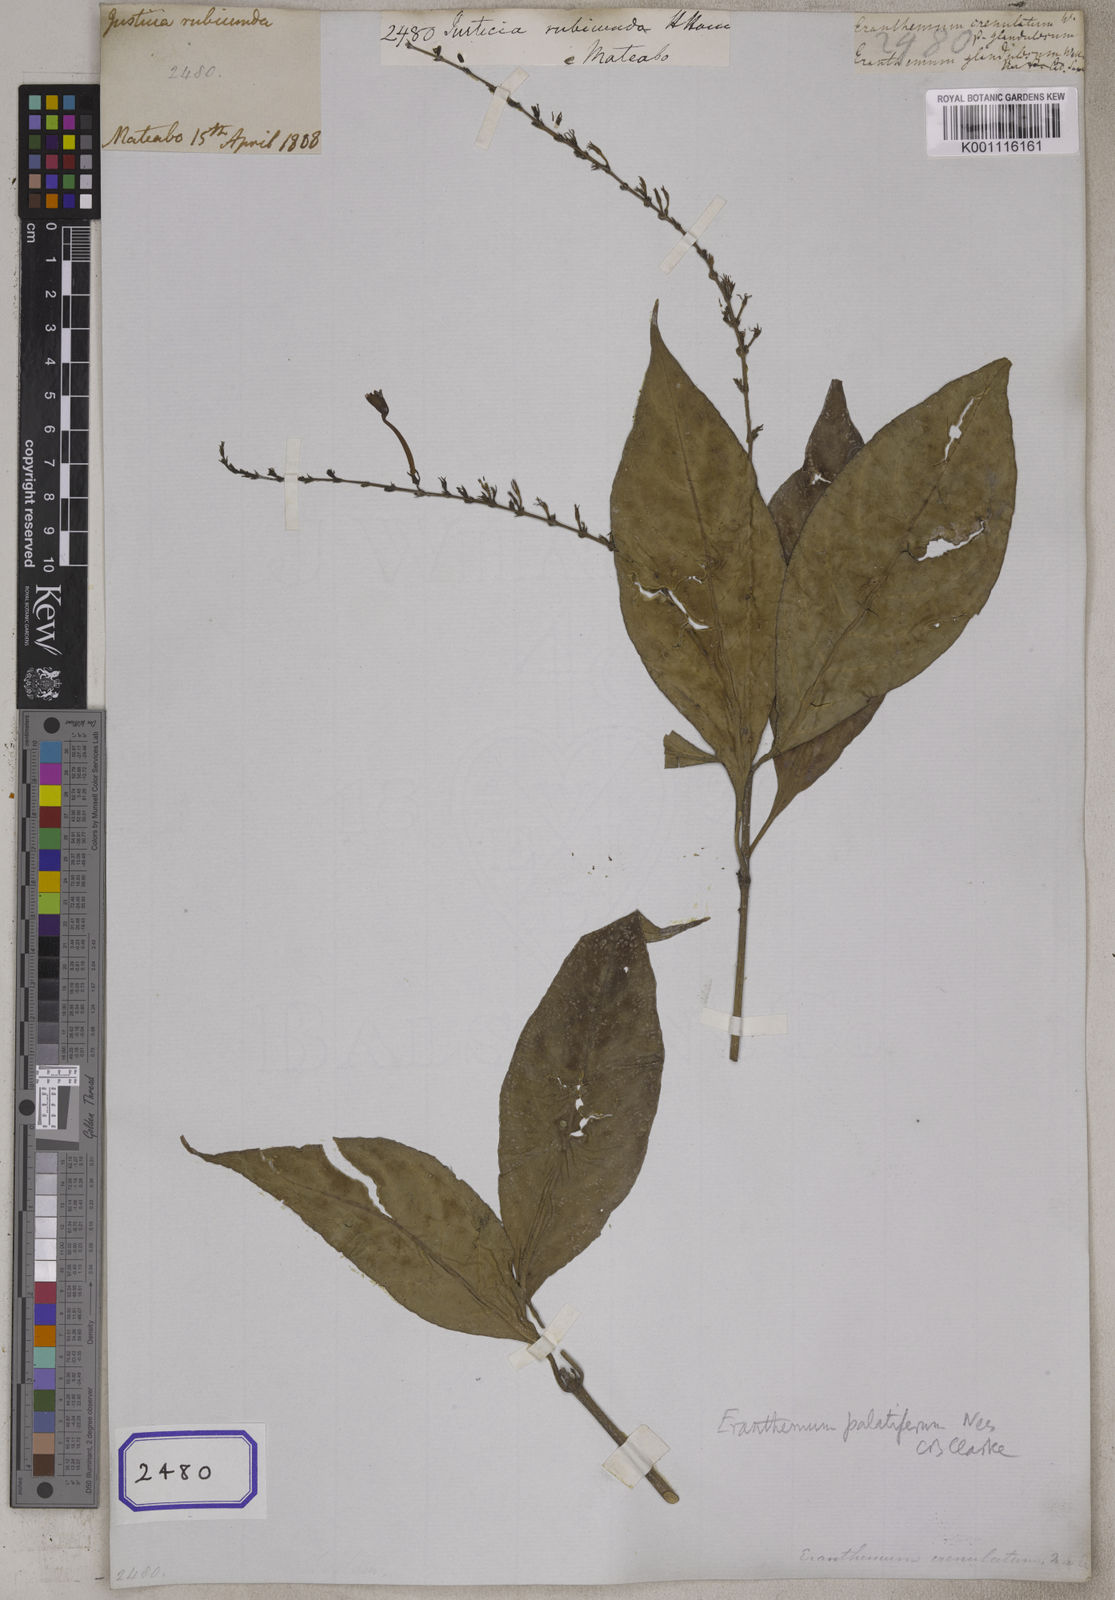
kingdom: Plantae
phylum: Tracheophyta
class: Magnoliopsida
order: Lamiales
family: Acanthaceae
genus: Pseuderanthemum
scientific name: Pseuderanthemum latifolium
